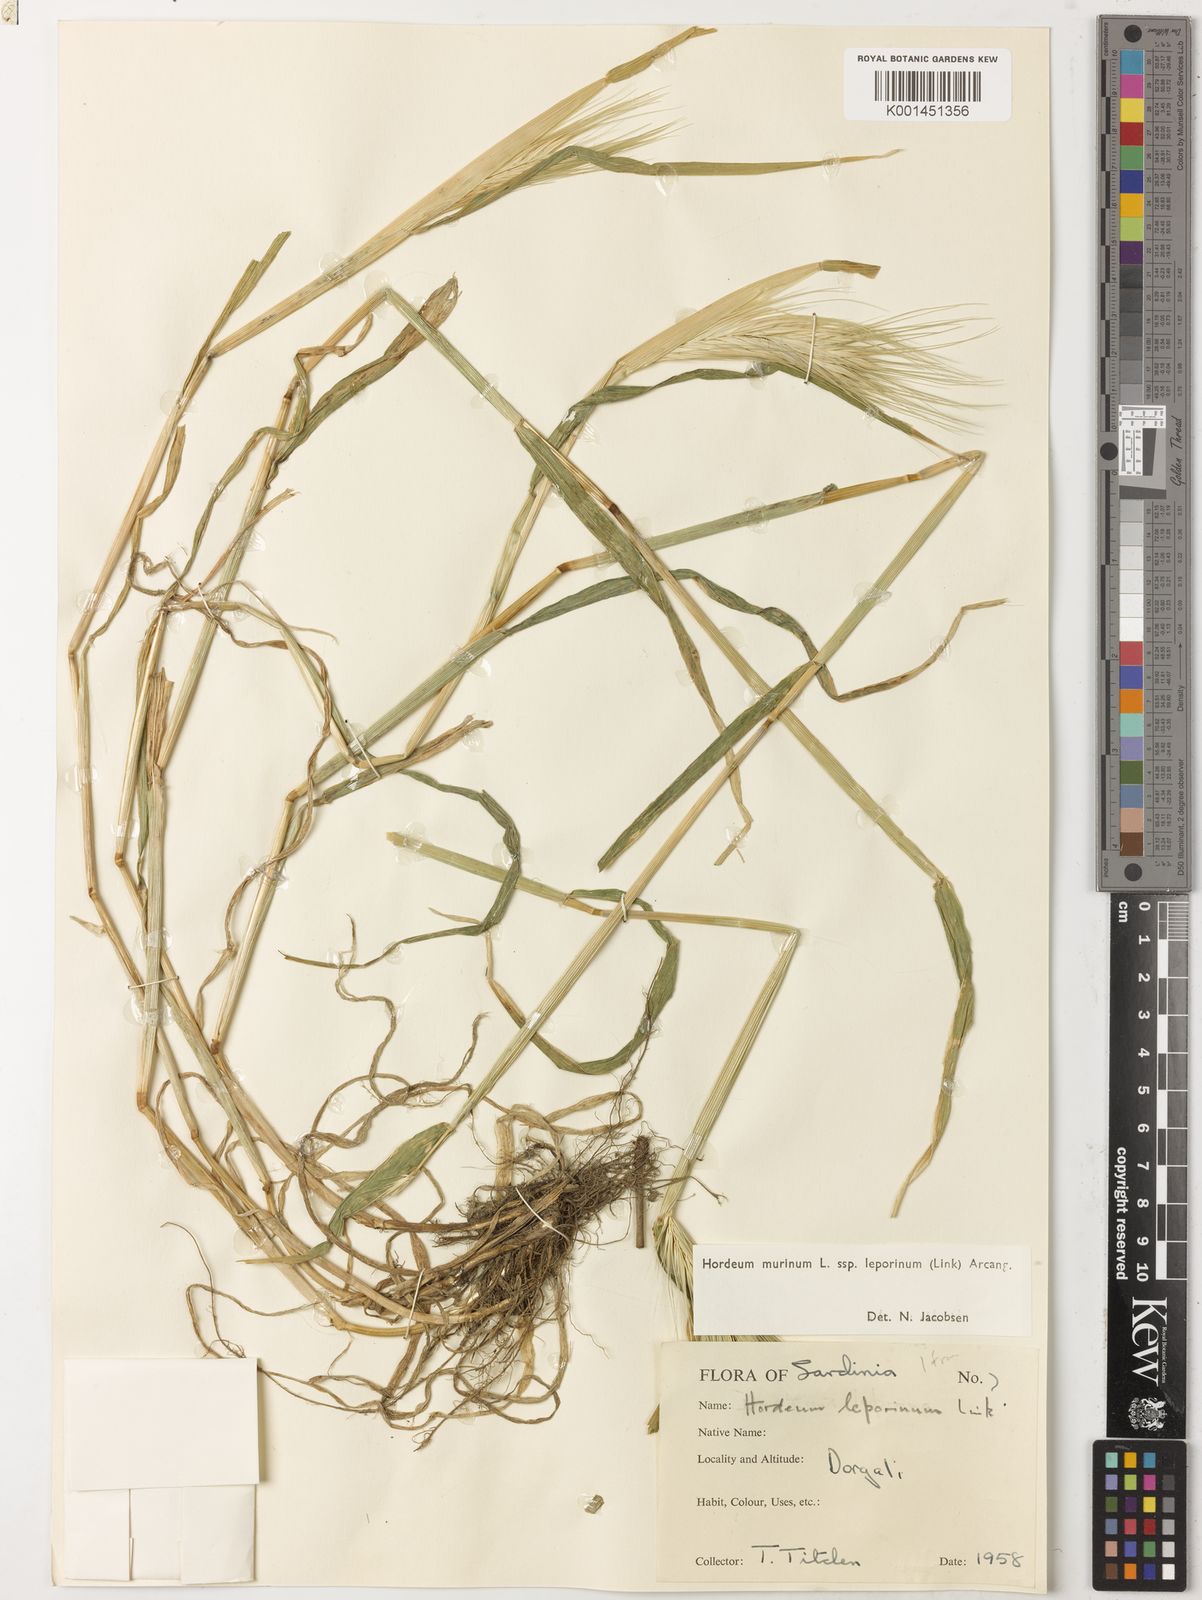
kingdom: Plantae
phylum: Tracheophyta
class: Liliopsida
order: Poales
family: Poaceae
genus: Hordeum
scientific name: Hordeum murinum
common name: Wall barley
